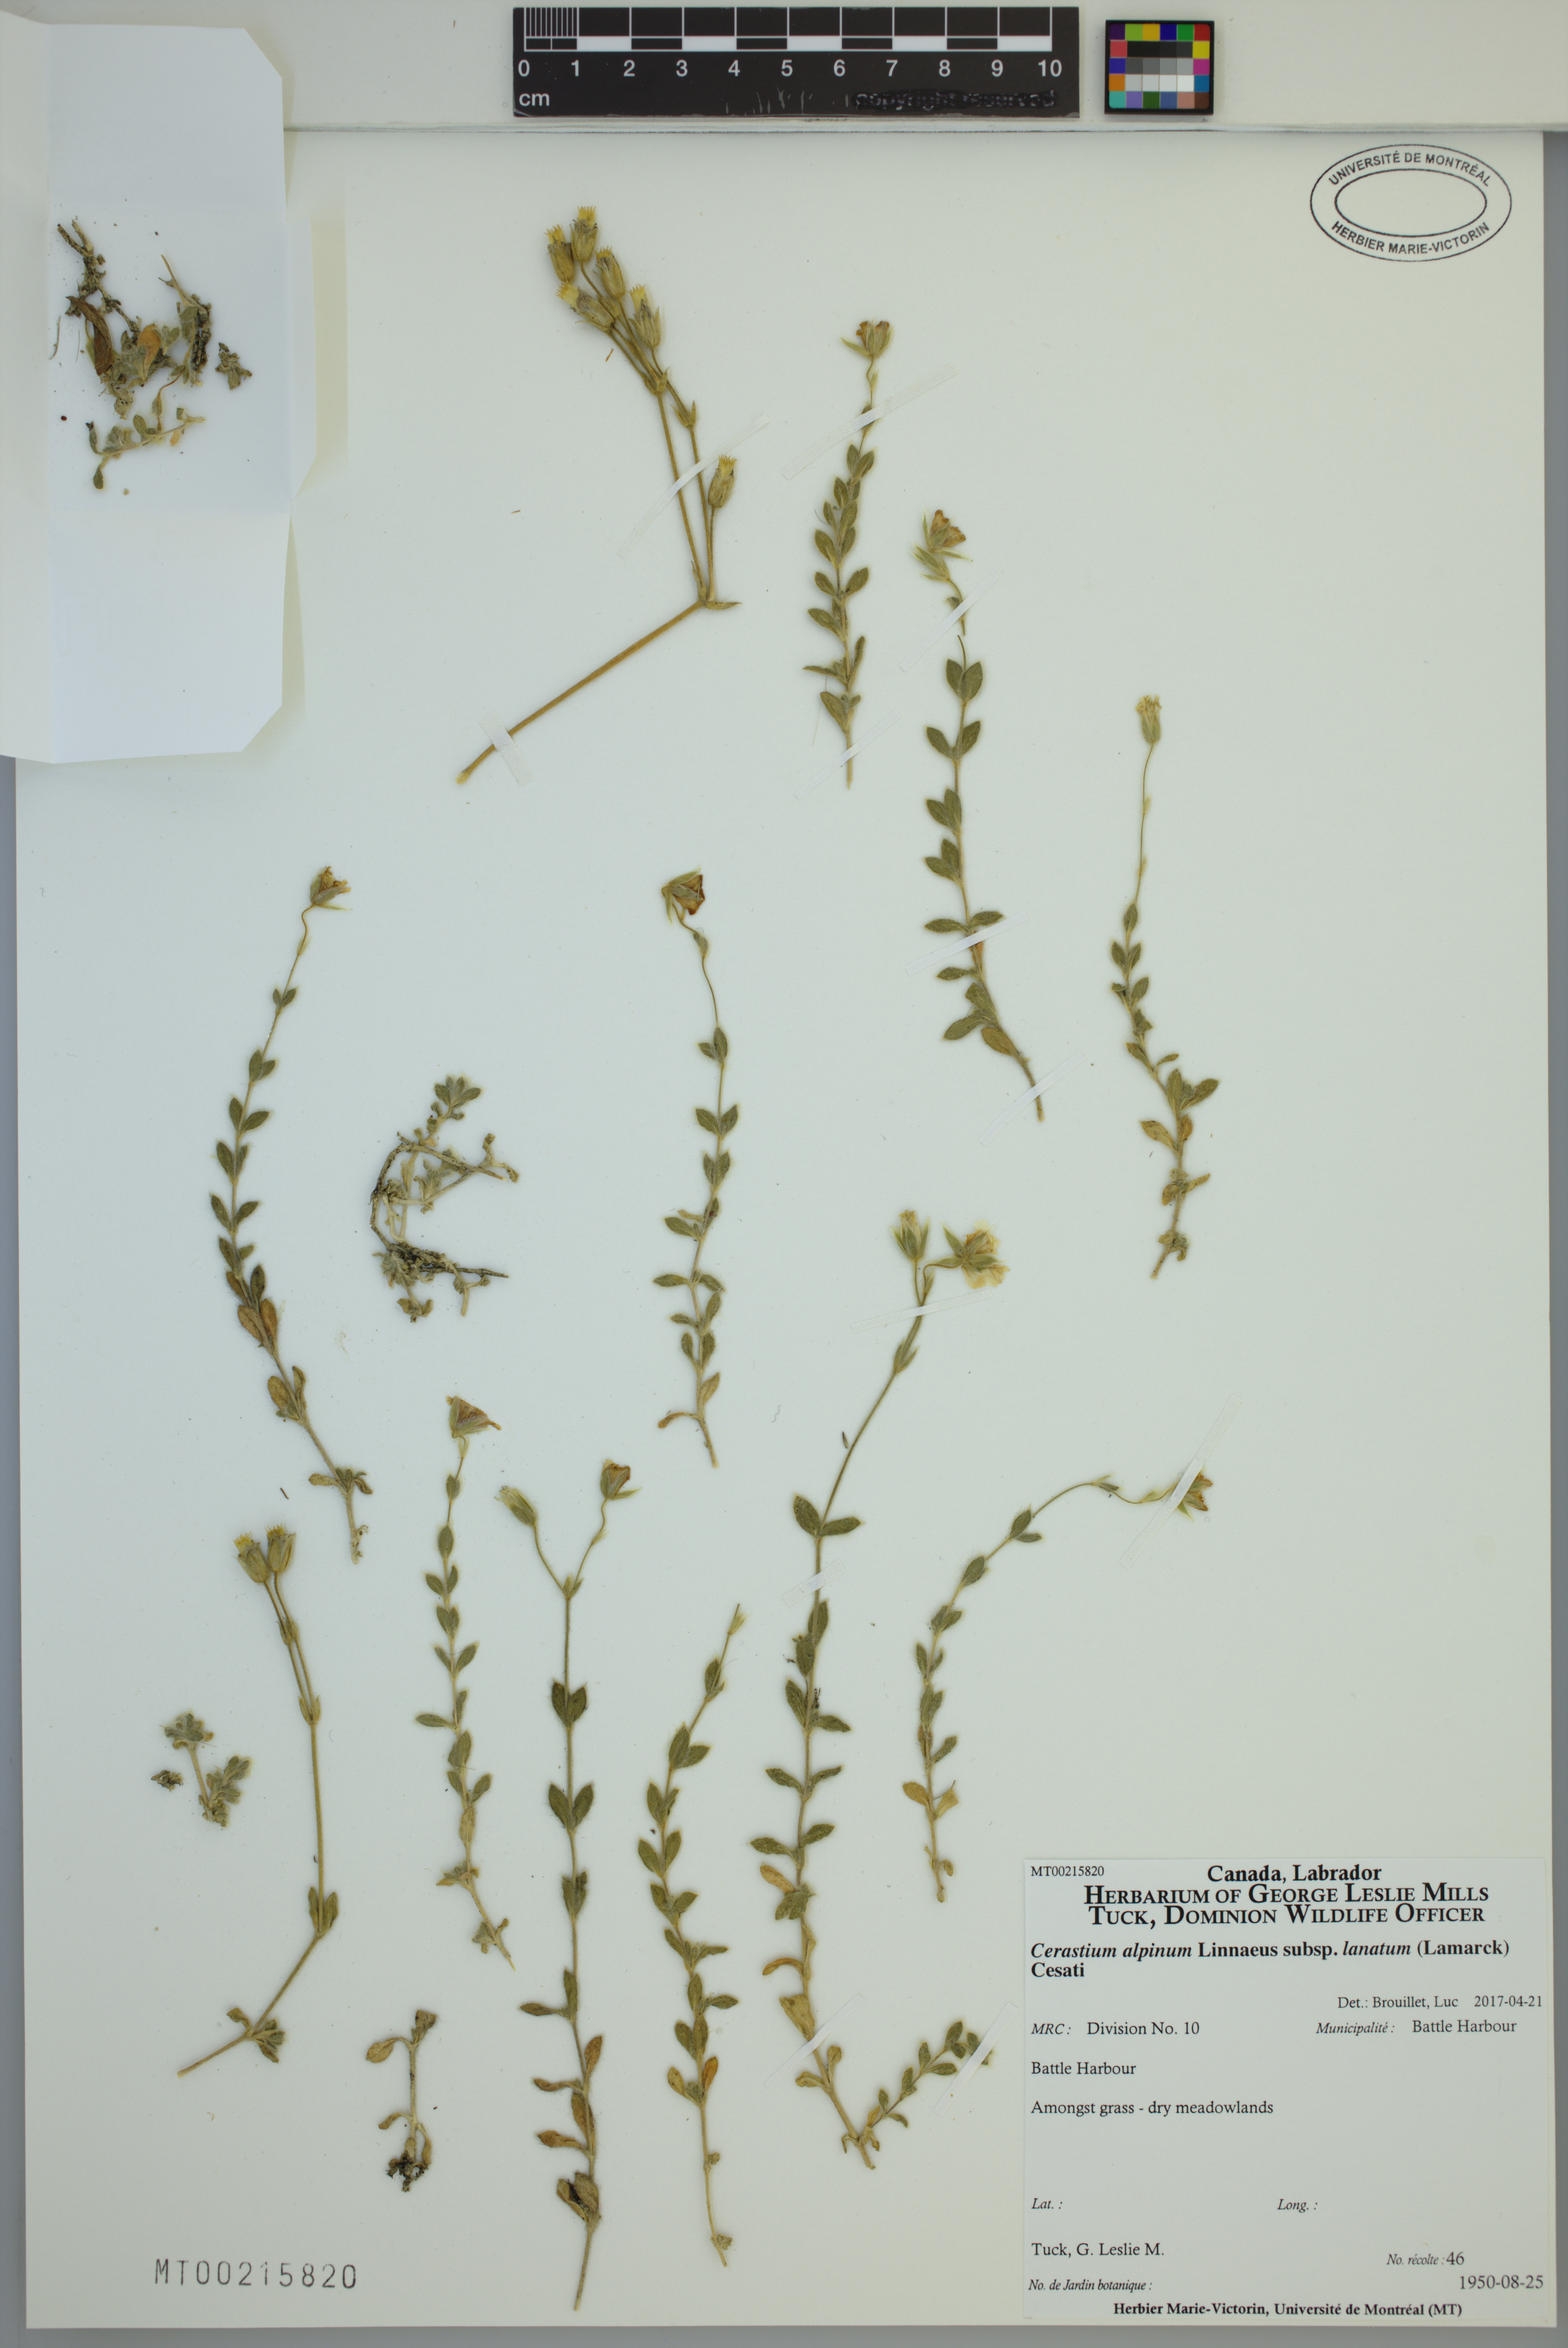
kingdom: Plantae
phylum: Tracheophyta
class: Magnoliopsida
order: Caryophyllales
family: Caryophyllaceae
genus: Cerastium
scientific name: Cerastium alpinum
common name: Alpine mouse-ear
